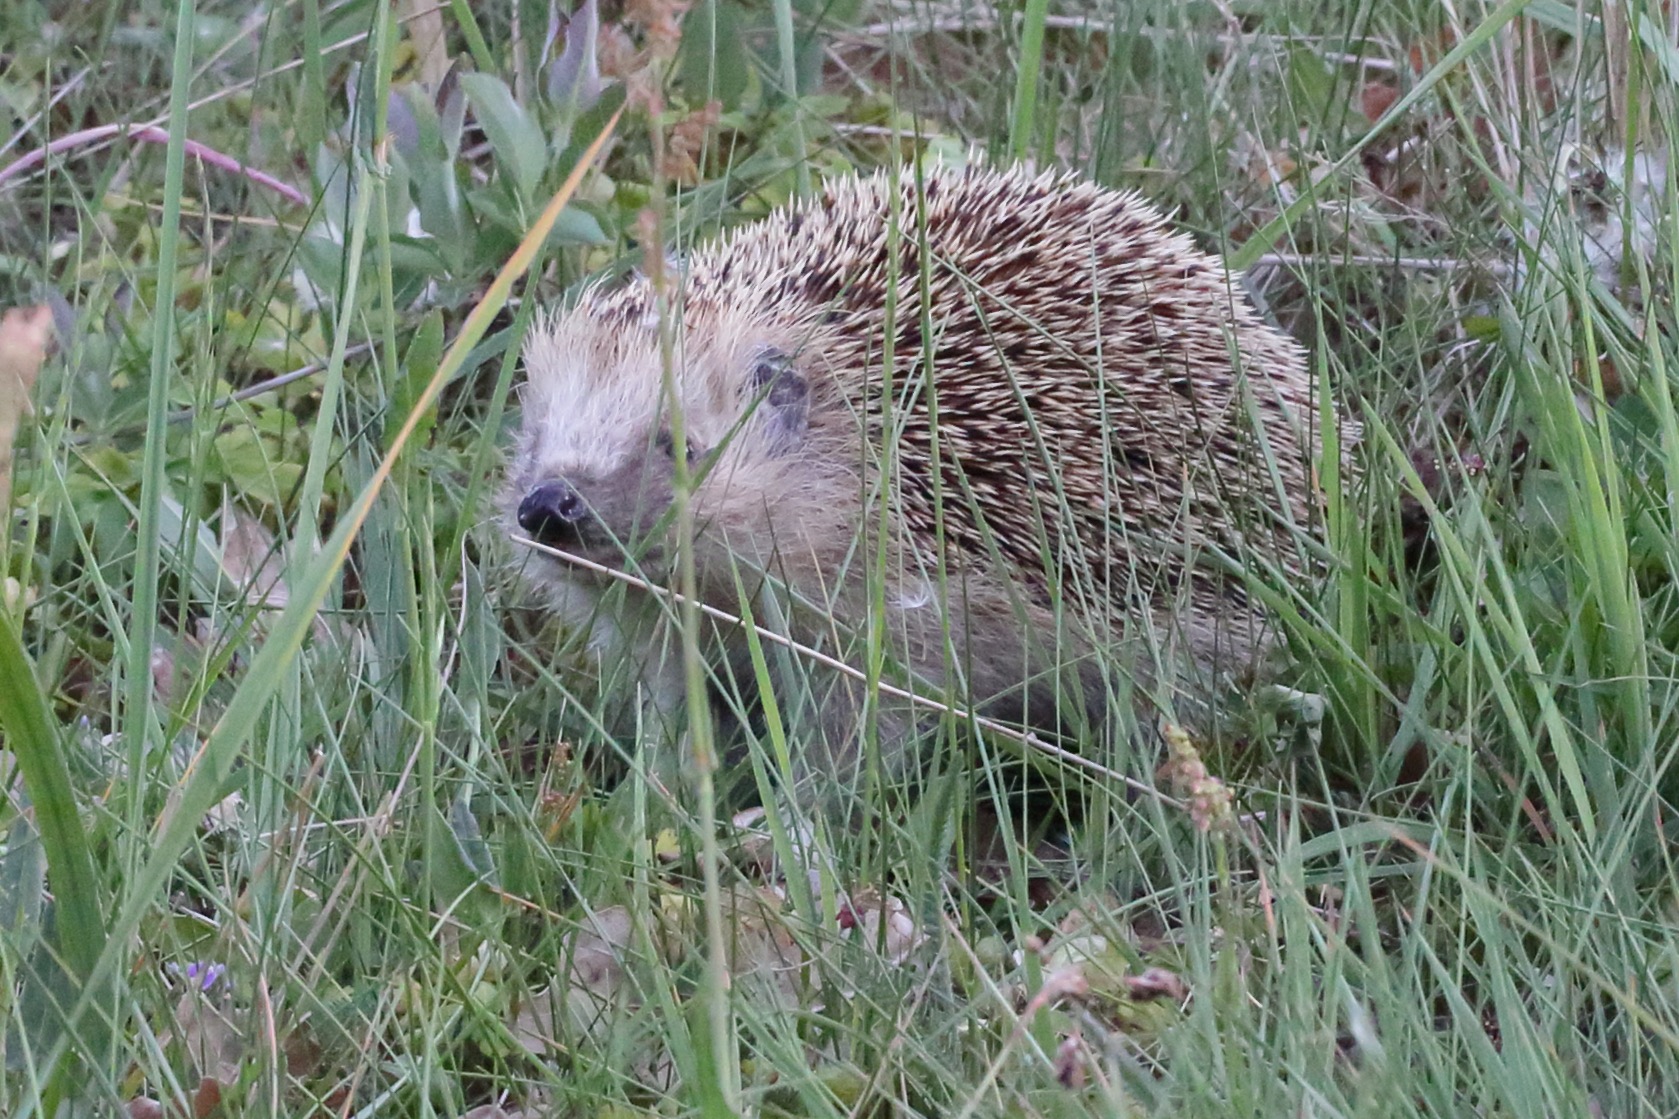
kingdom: Animalia
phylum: Chordata
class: Mammalia
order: Erinaceomorpha
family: Erinaceidae
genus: Erinaceus
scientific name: Erinaceus europaeus
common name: Pindsvin
